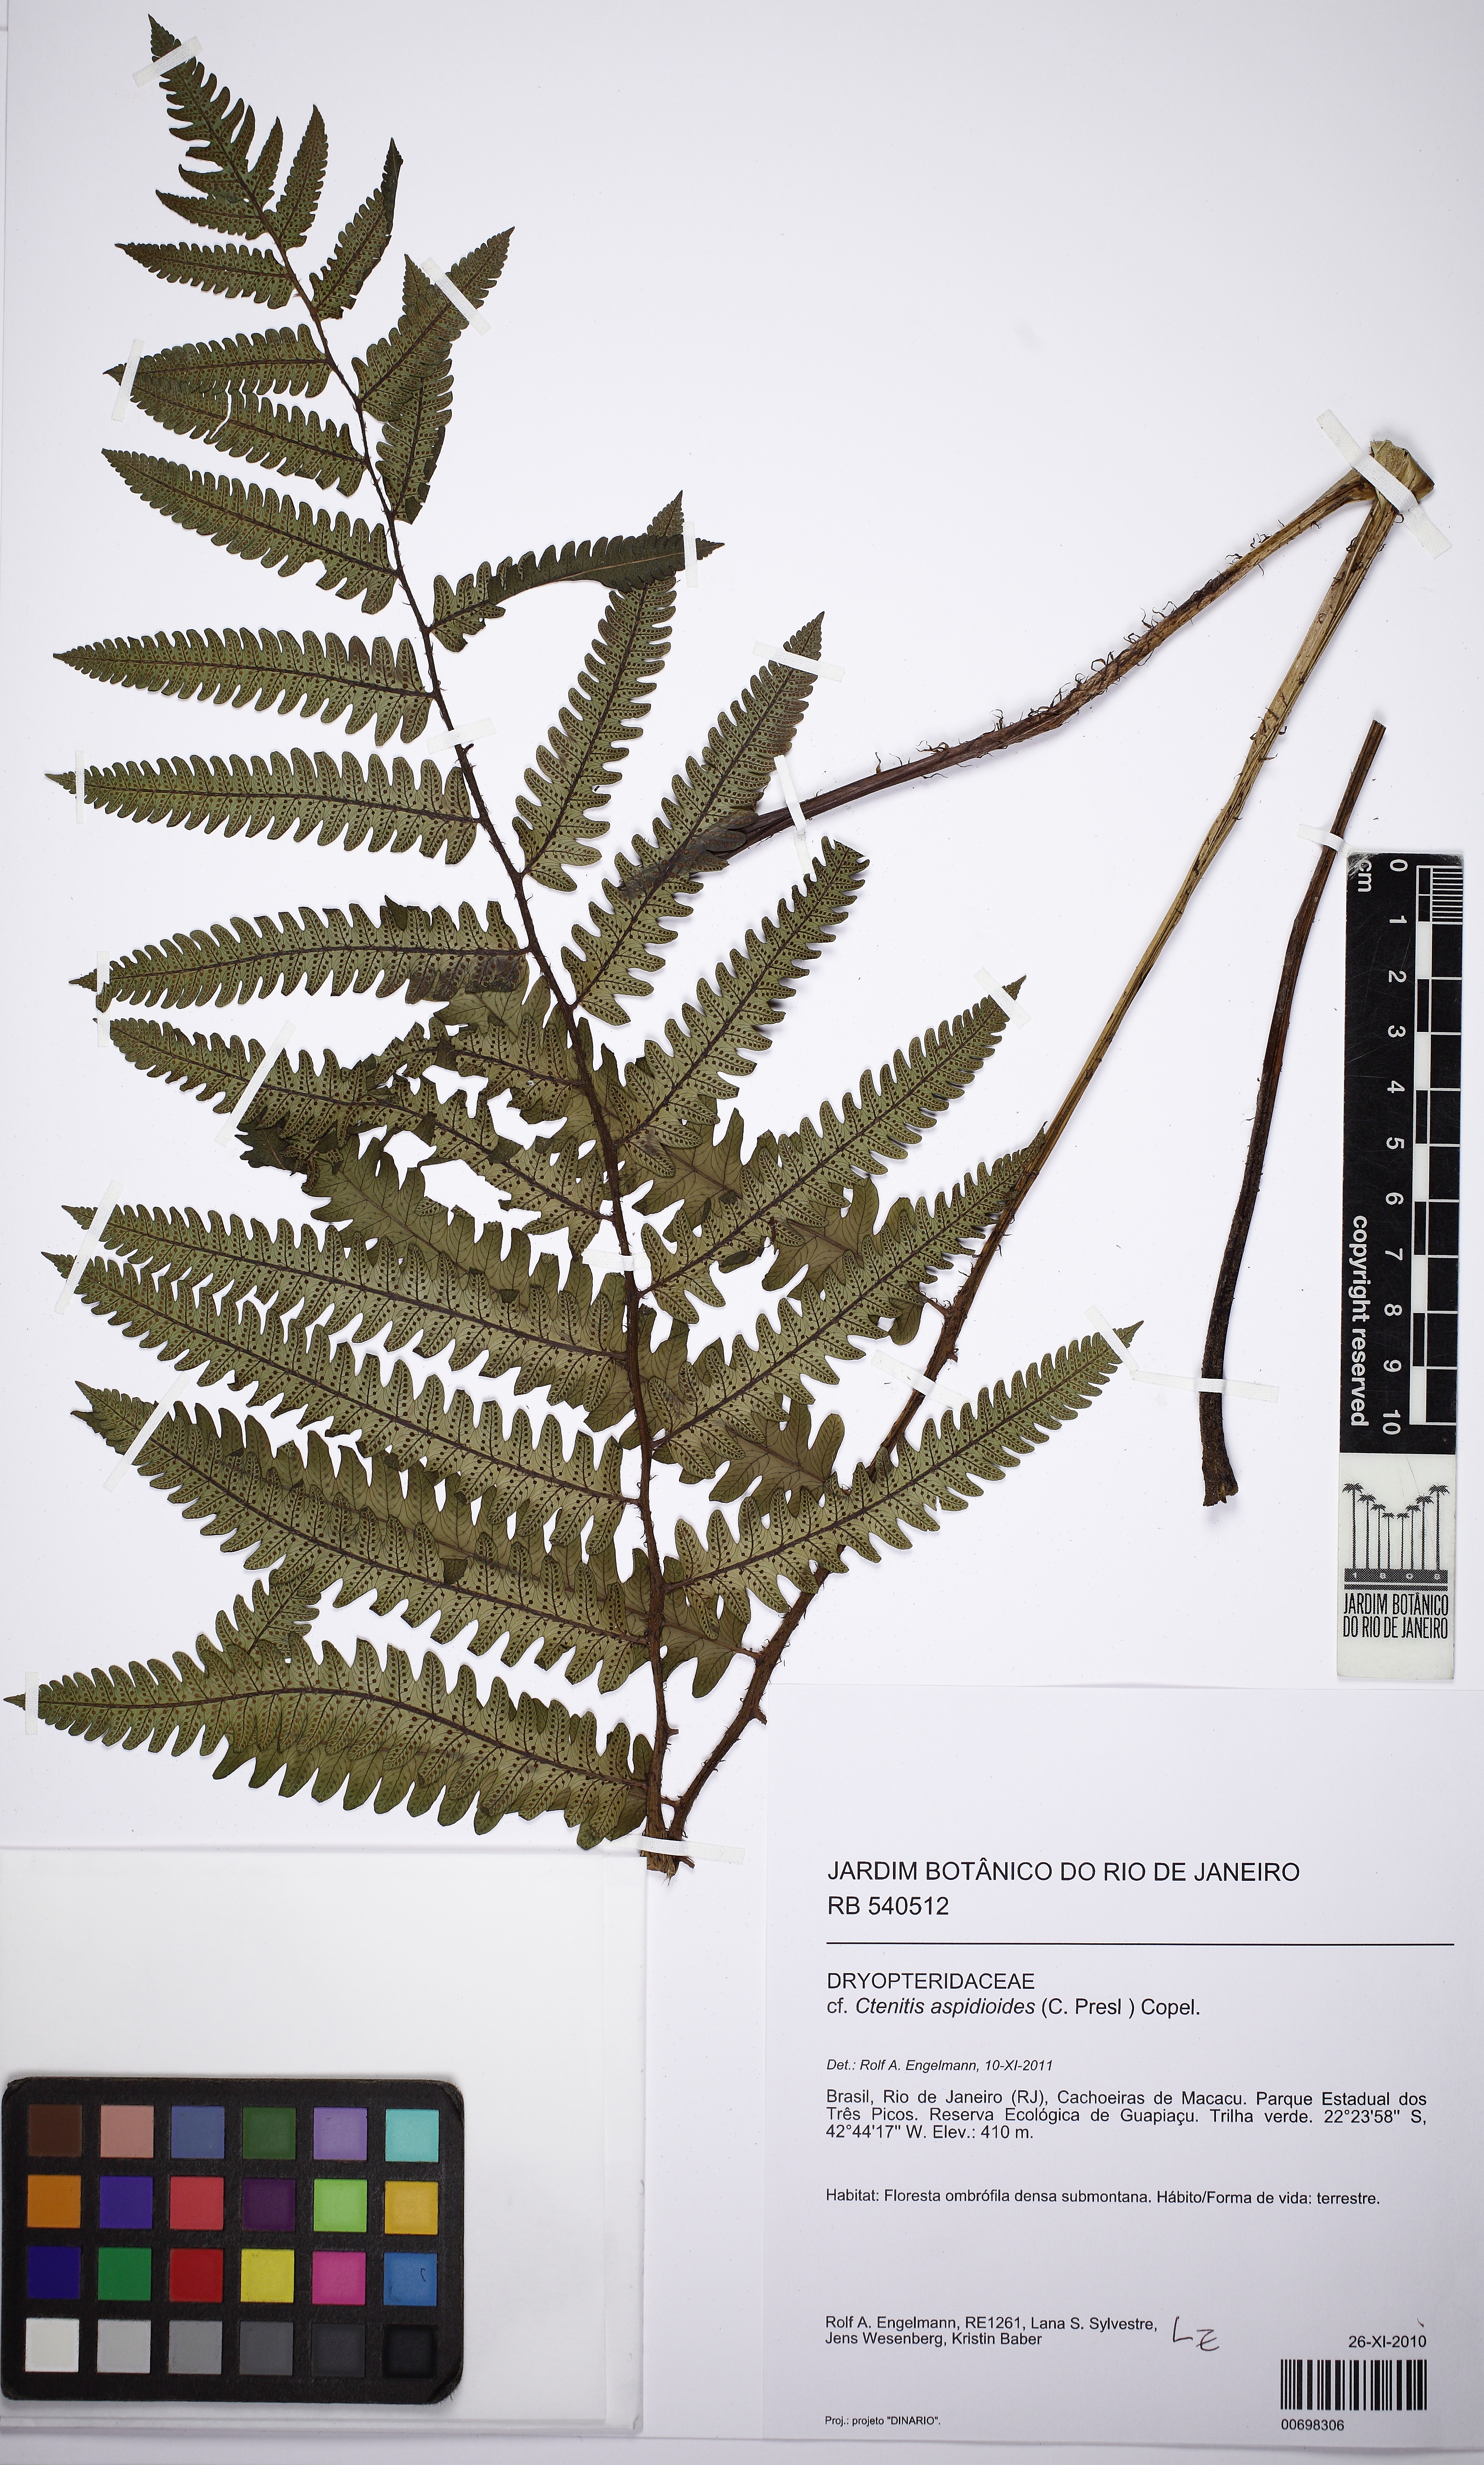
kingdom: Plantae
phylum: Tracheophyta
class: Polypodiopsida
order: Polypodiales
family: Dryopteridaceae
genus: Ctenitis
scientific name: Ctenitis
